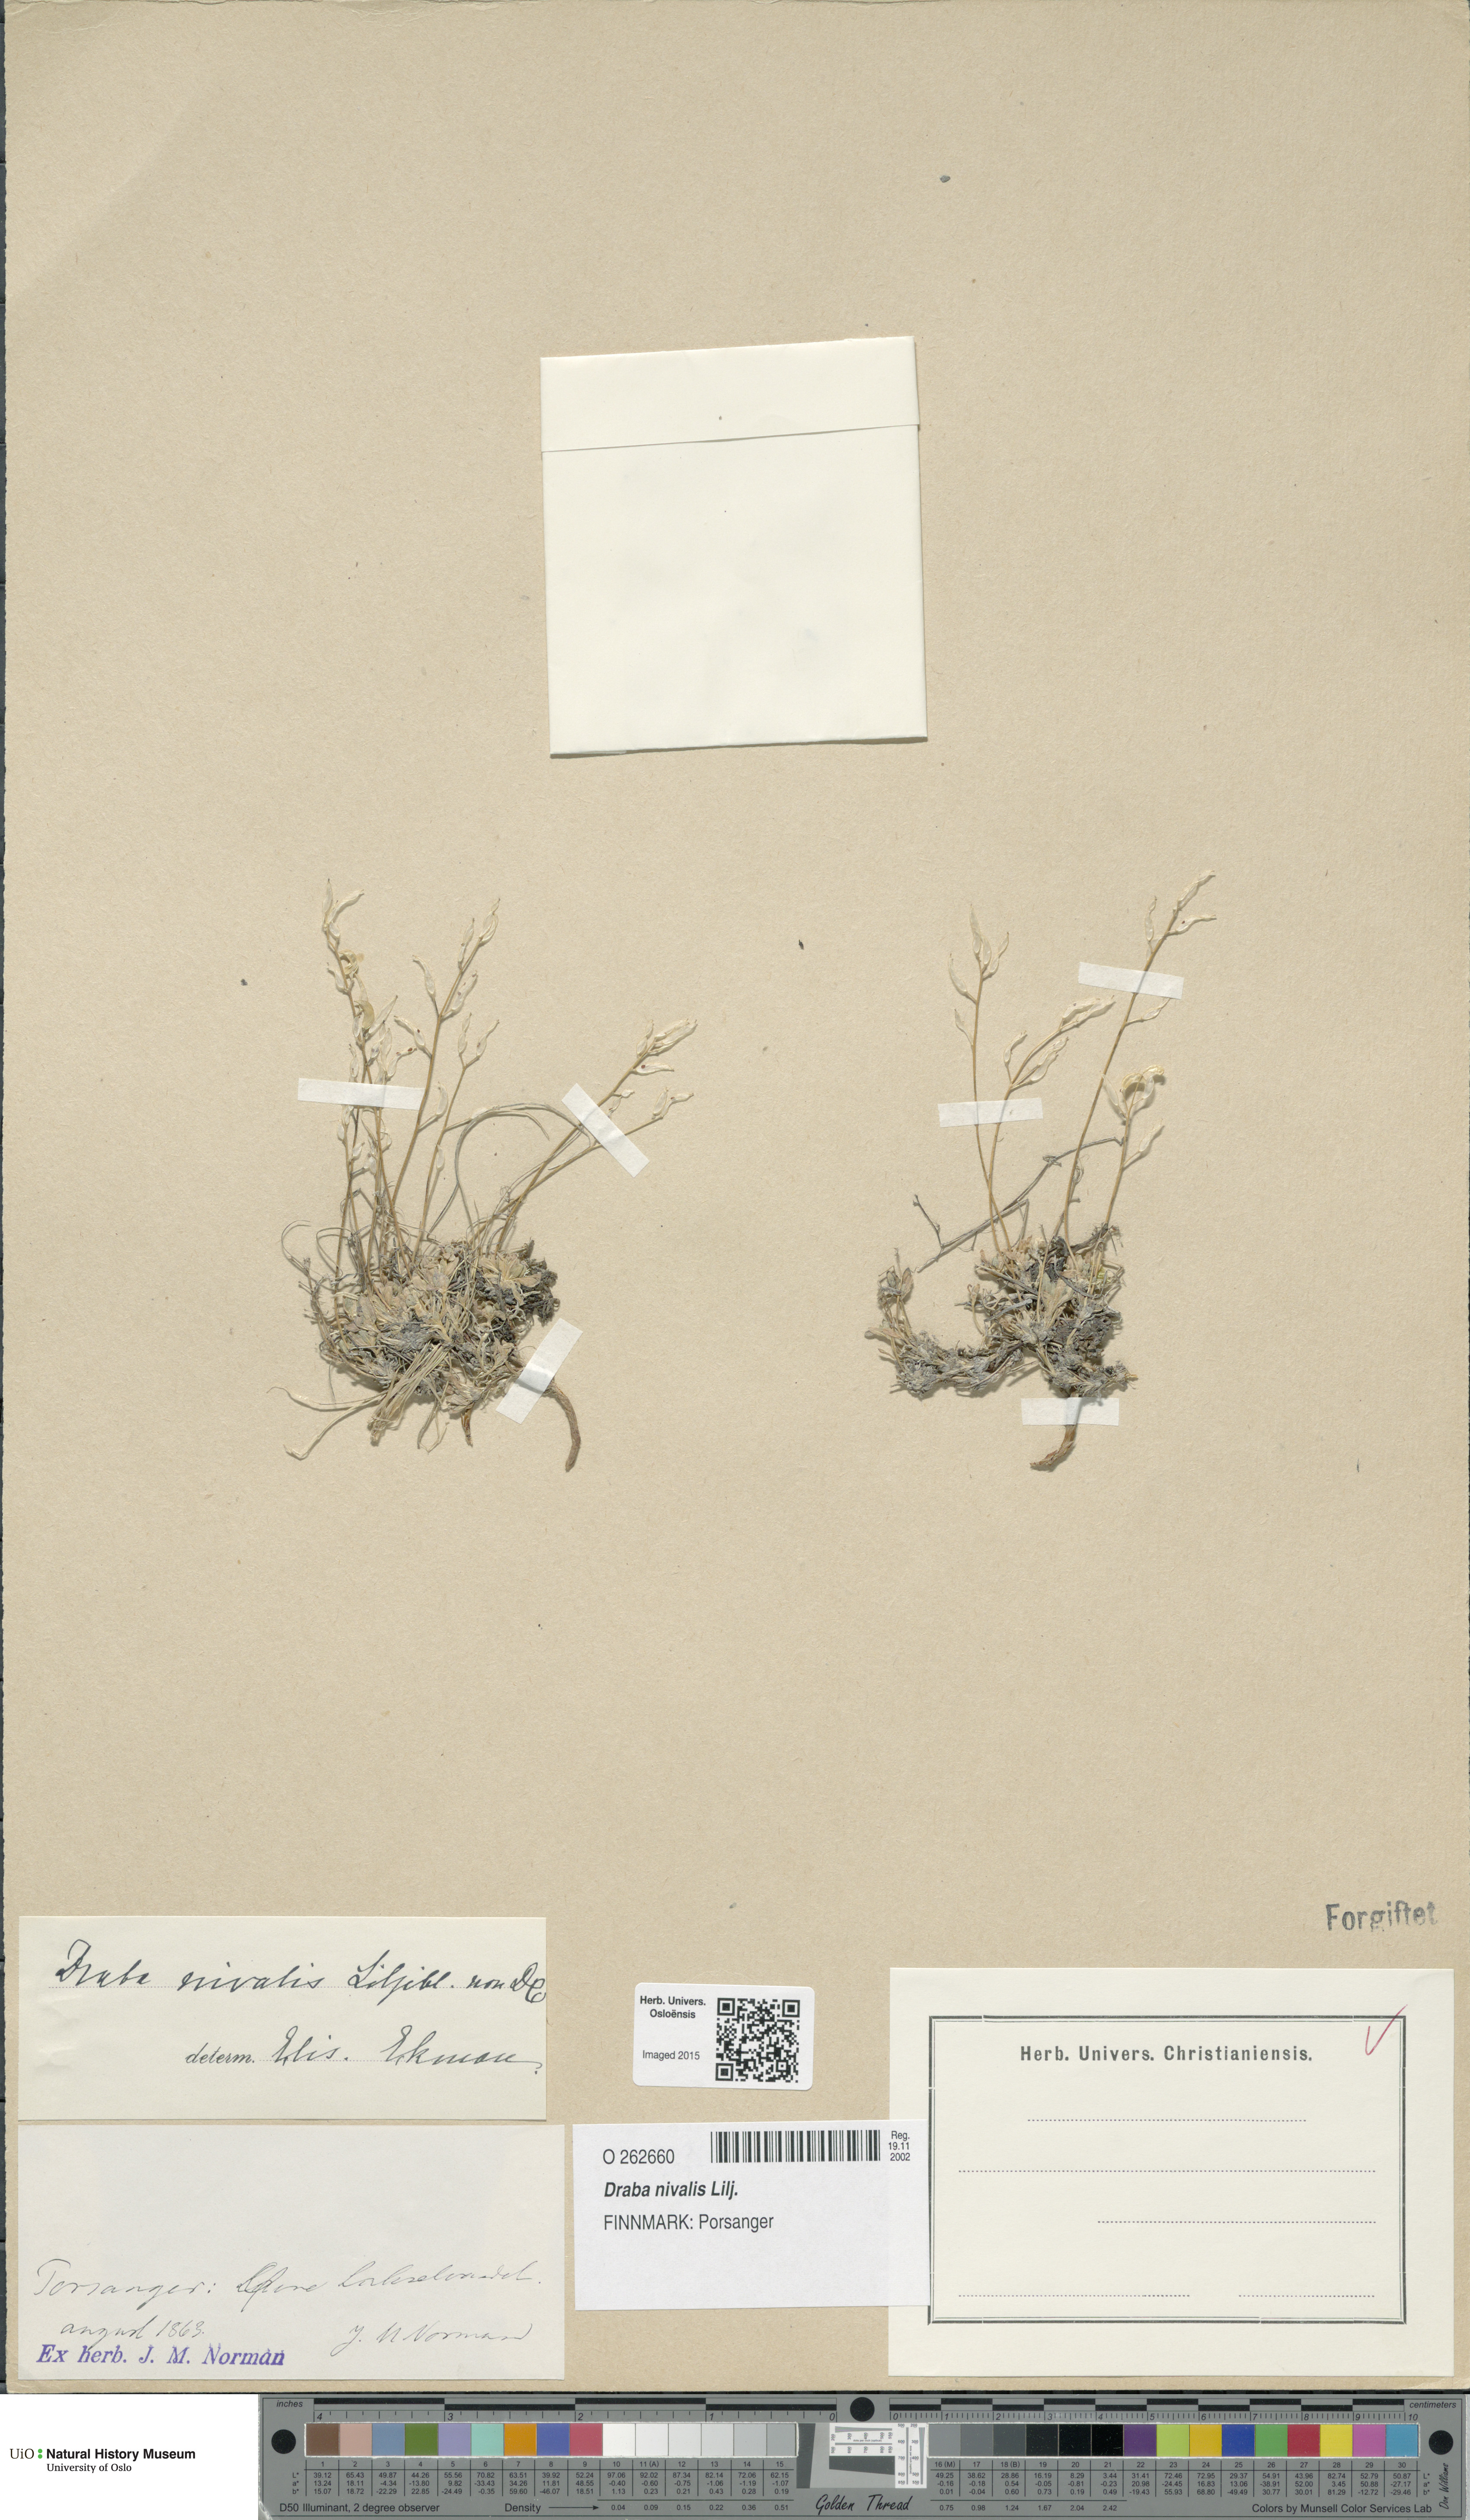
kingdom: Plantae
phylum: Tracheophyta
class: Magnoliopsida
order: Brassicales
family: Brassicaceae
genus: Draba
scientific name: Draba nivalis
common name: Snow draba
